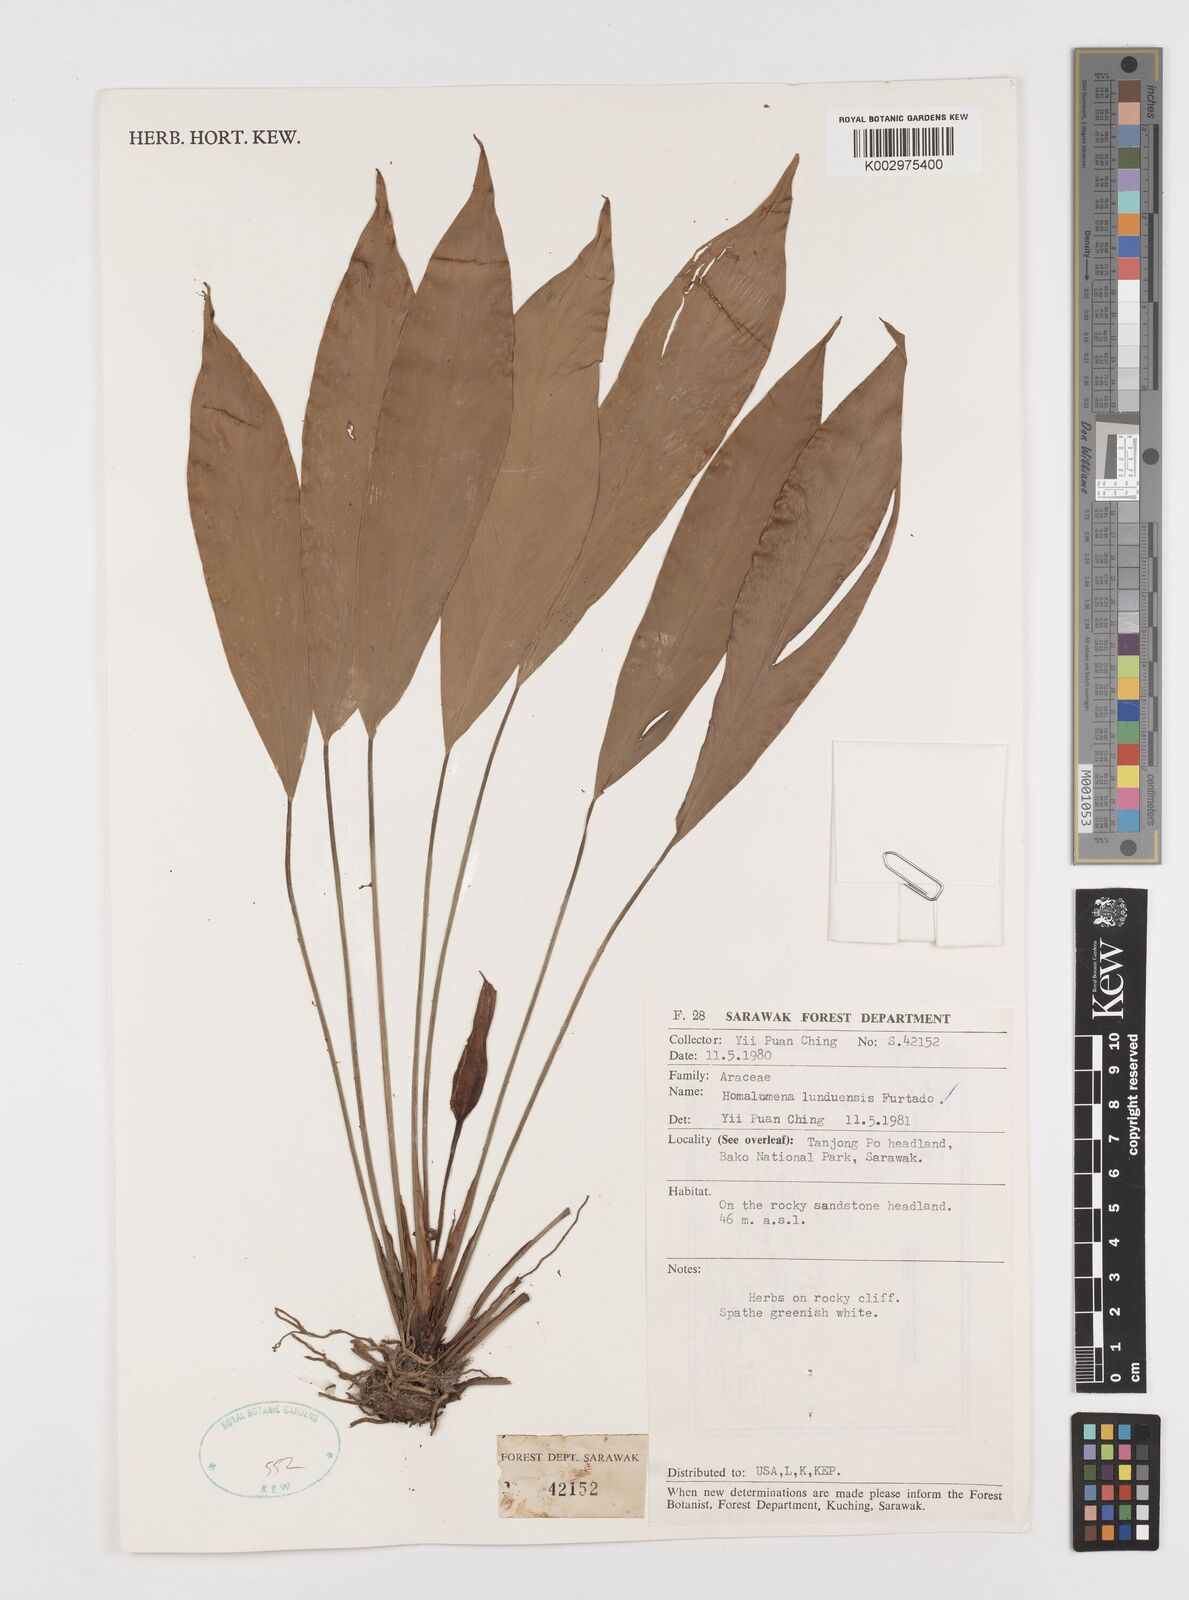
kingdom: Plantae
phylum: Tracheophyta
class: Liliopsida
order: Alismatales
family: Araceae
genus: Homalomena
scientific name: Homalomena havilandii
